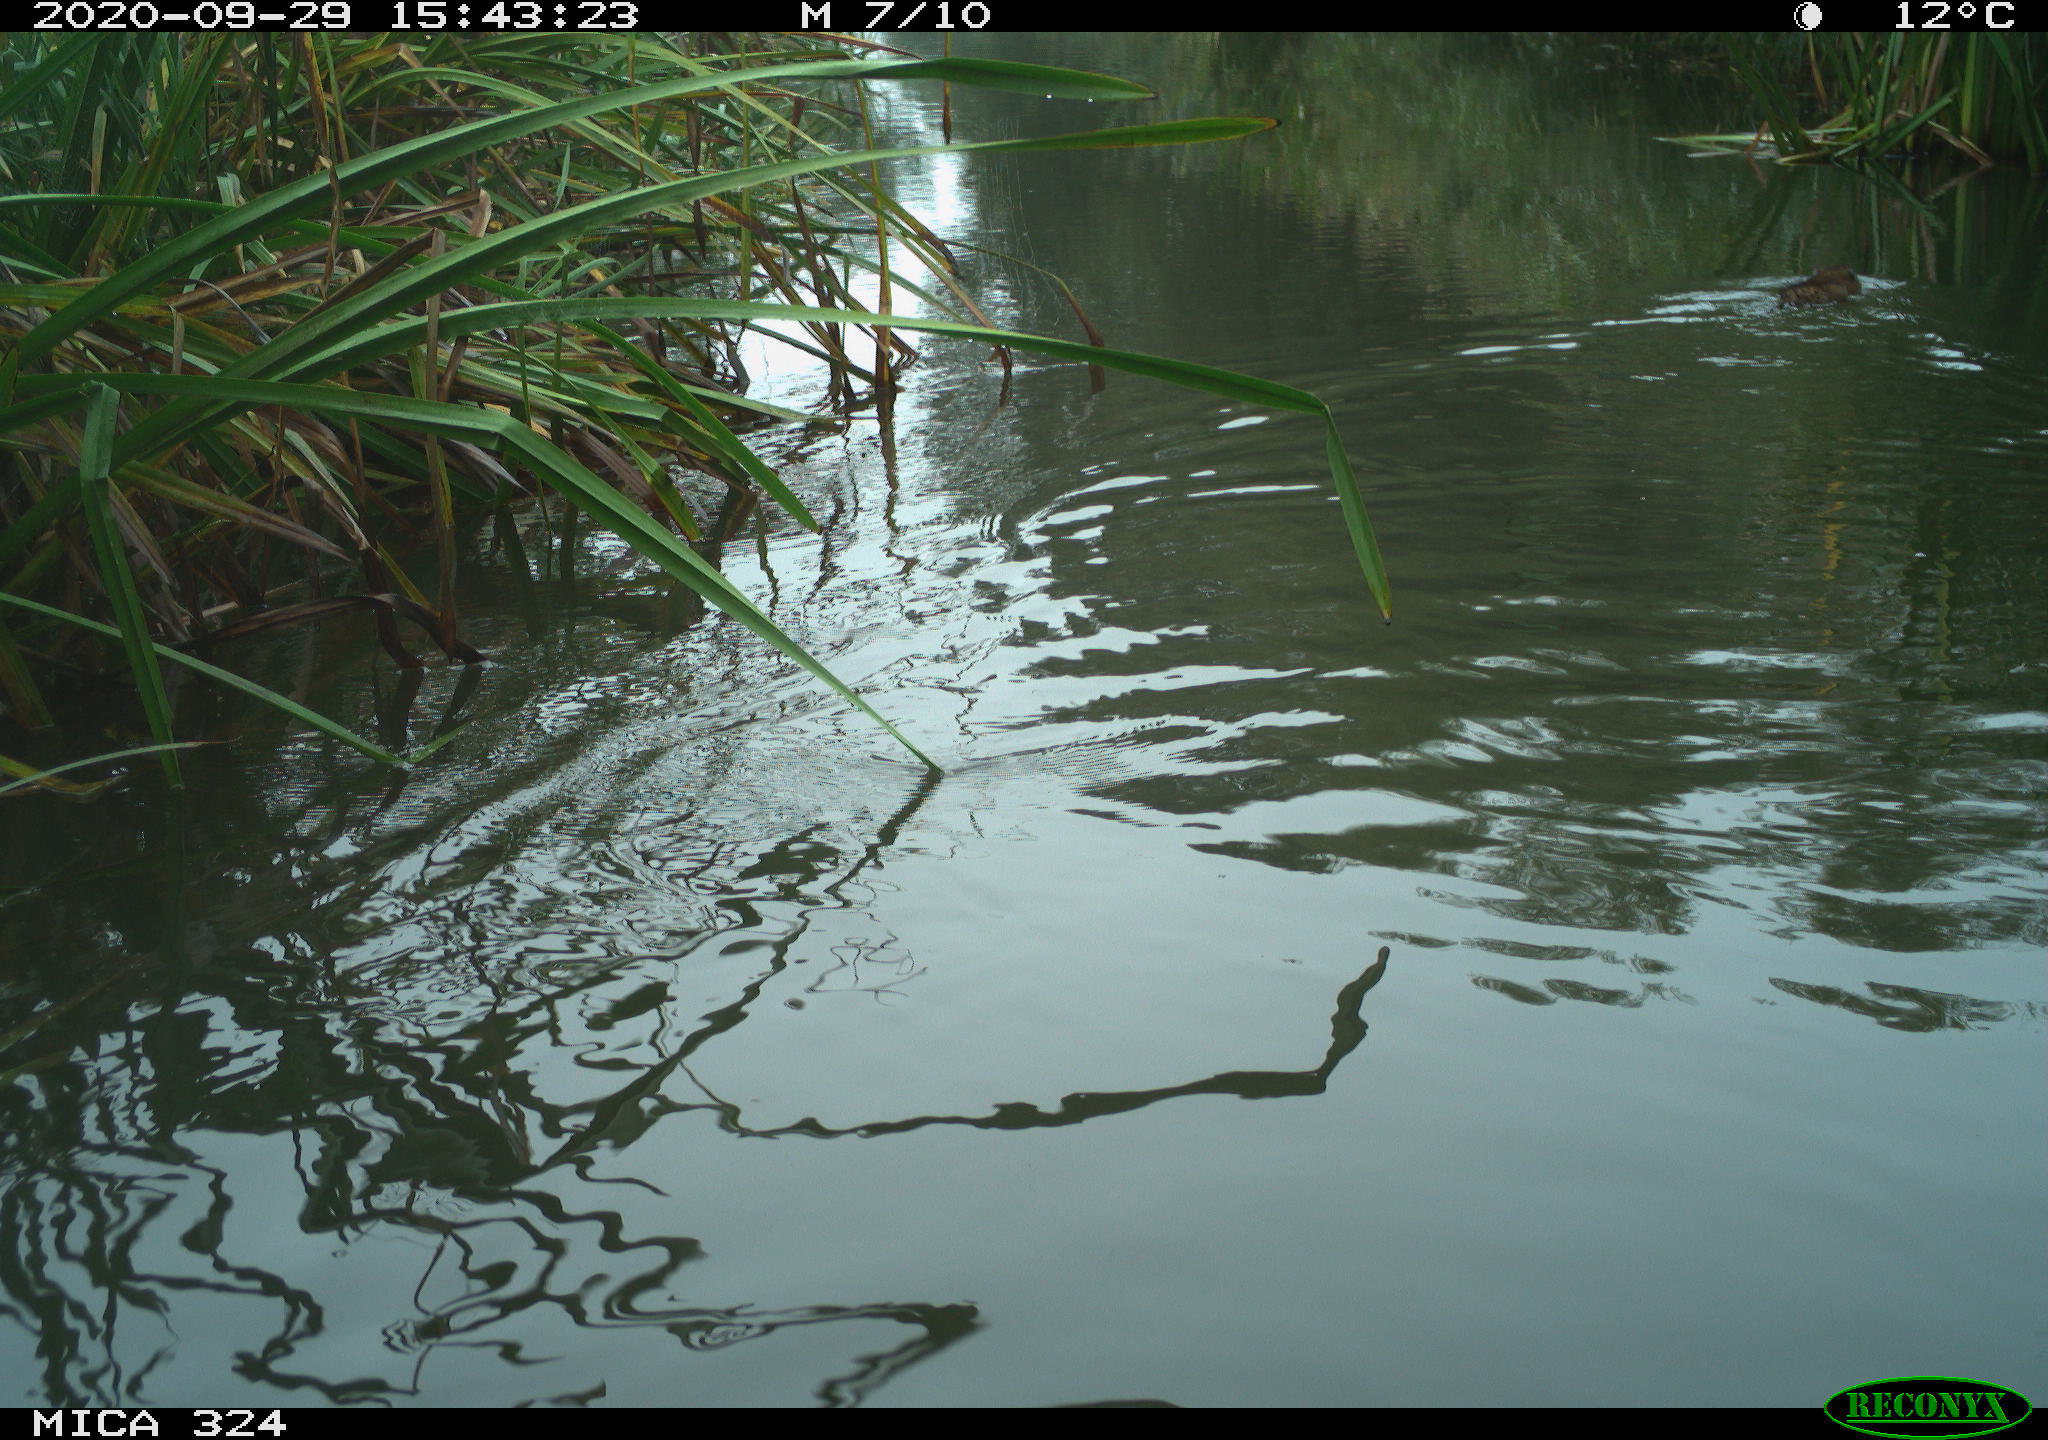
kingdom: Animalia
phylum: Chordata
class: Mammalia
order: Rodentia
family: Cricetidae
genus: Ondatra
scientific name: Ondatra zibethicus
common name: Muskrat
